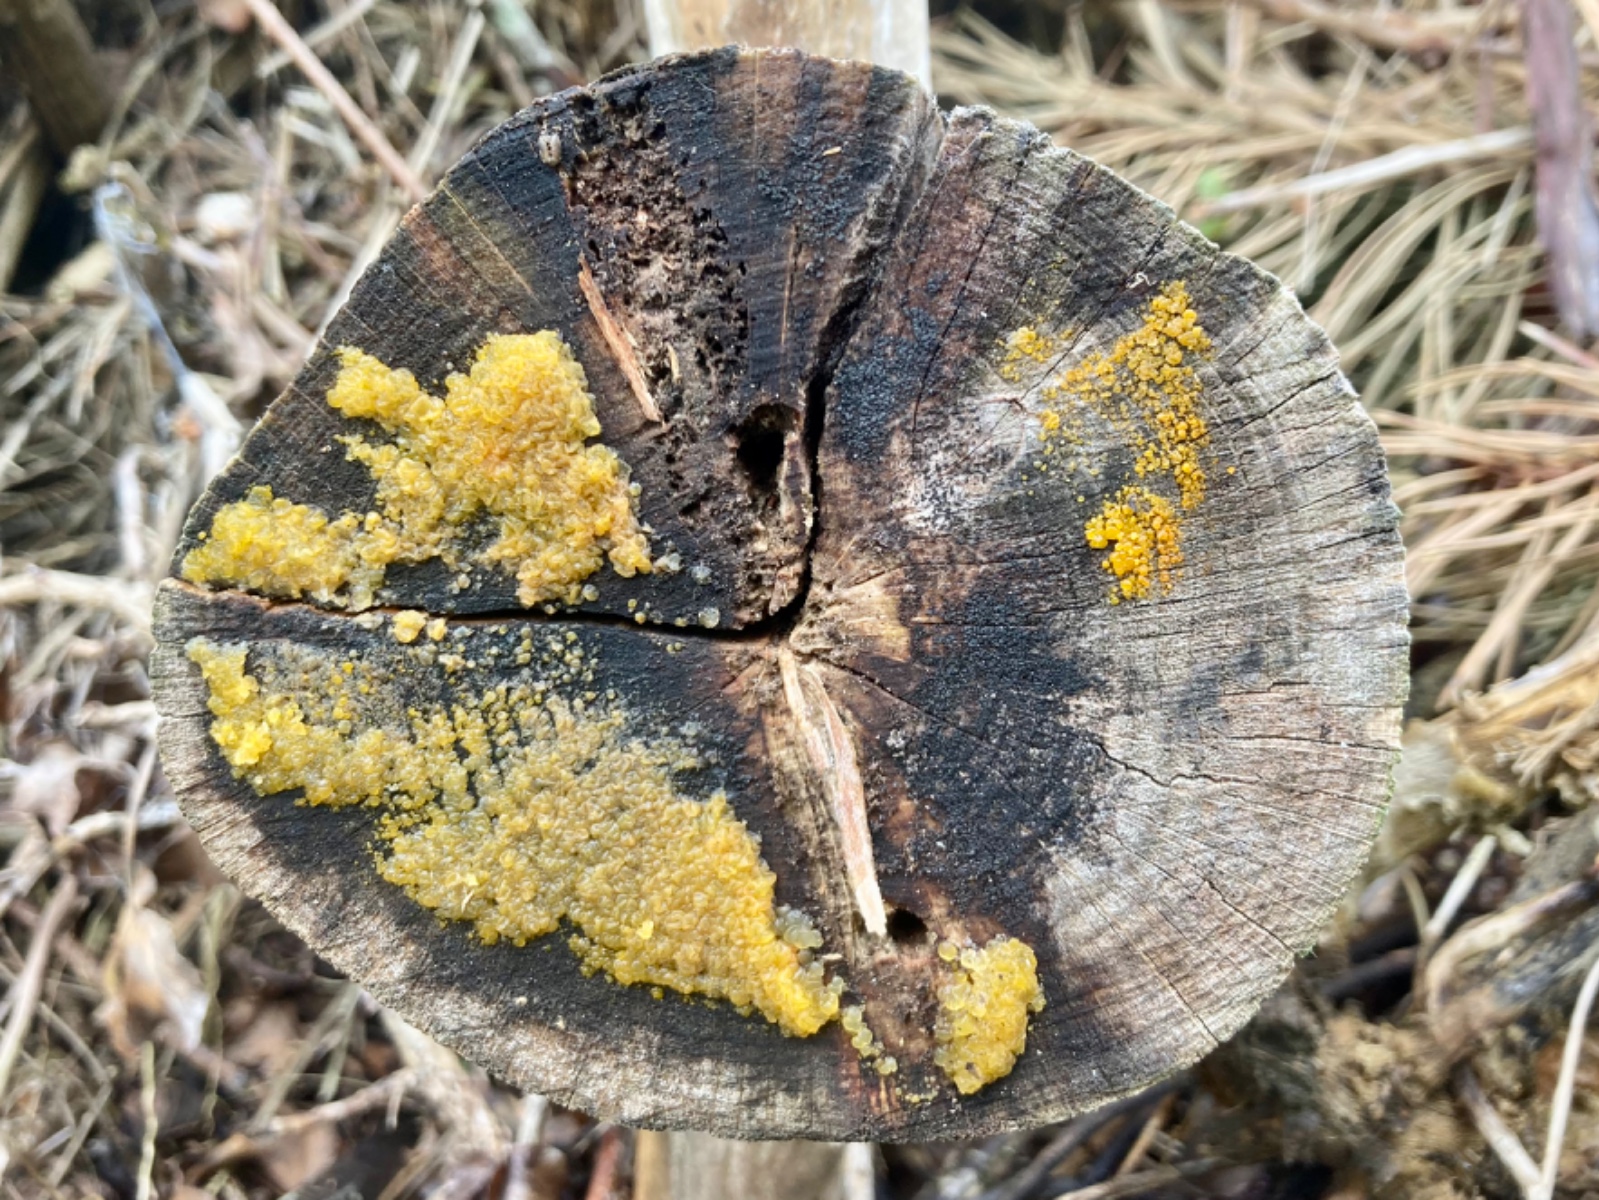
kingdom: Fungi
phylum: Basidiomycota
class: Dacrymycetes
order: Dacrymycetales
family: Dacrymycetaceae
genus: Dacrymyces
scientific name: Dacrymyces
